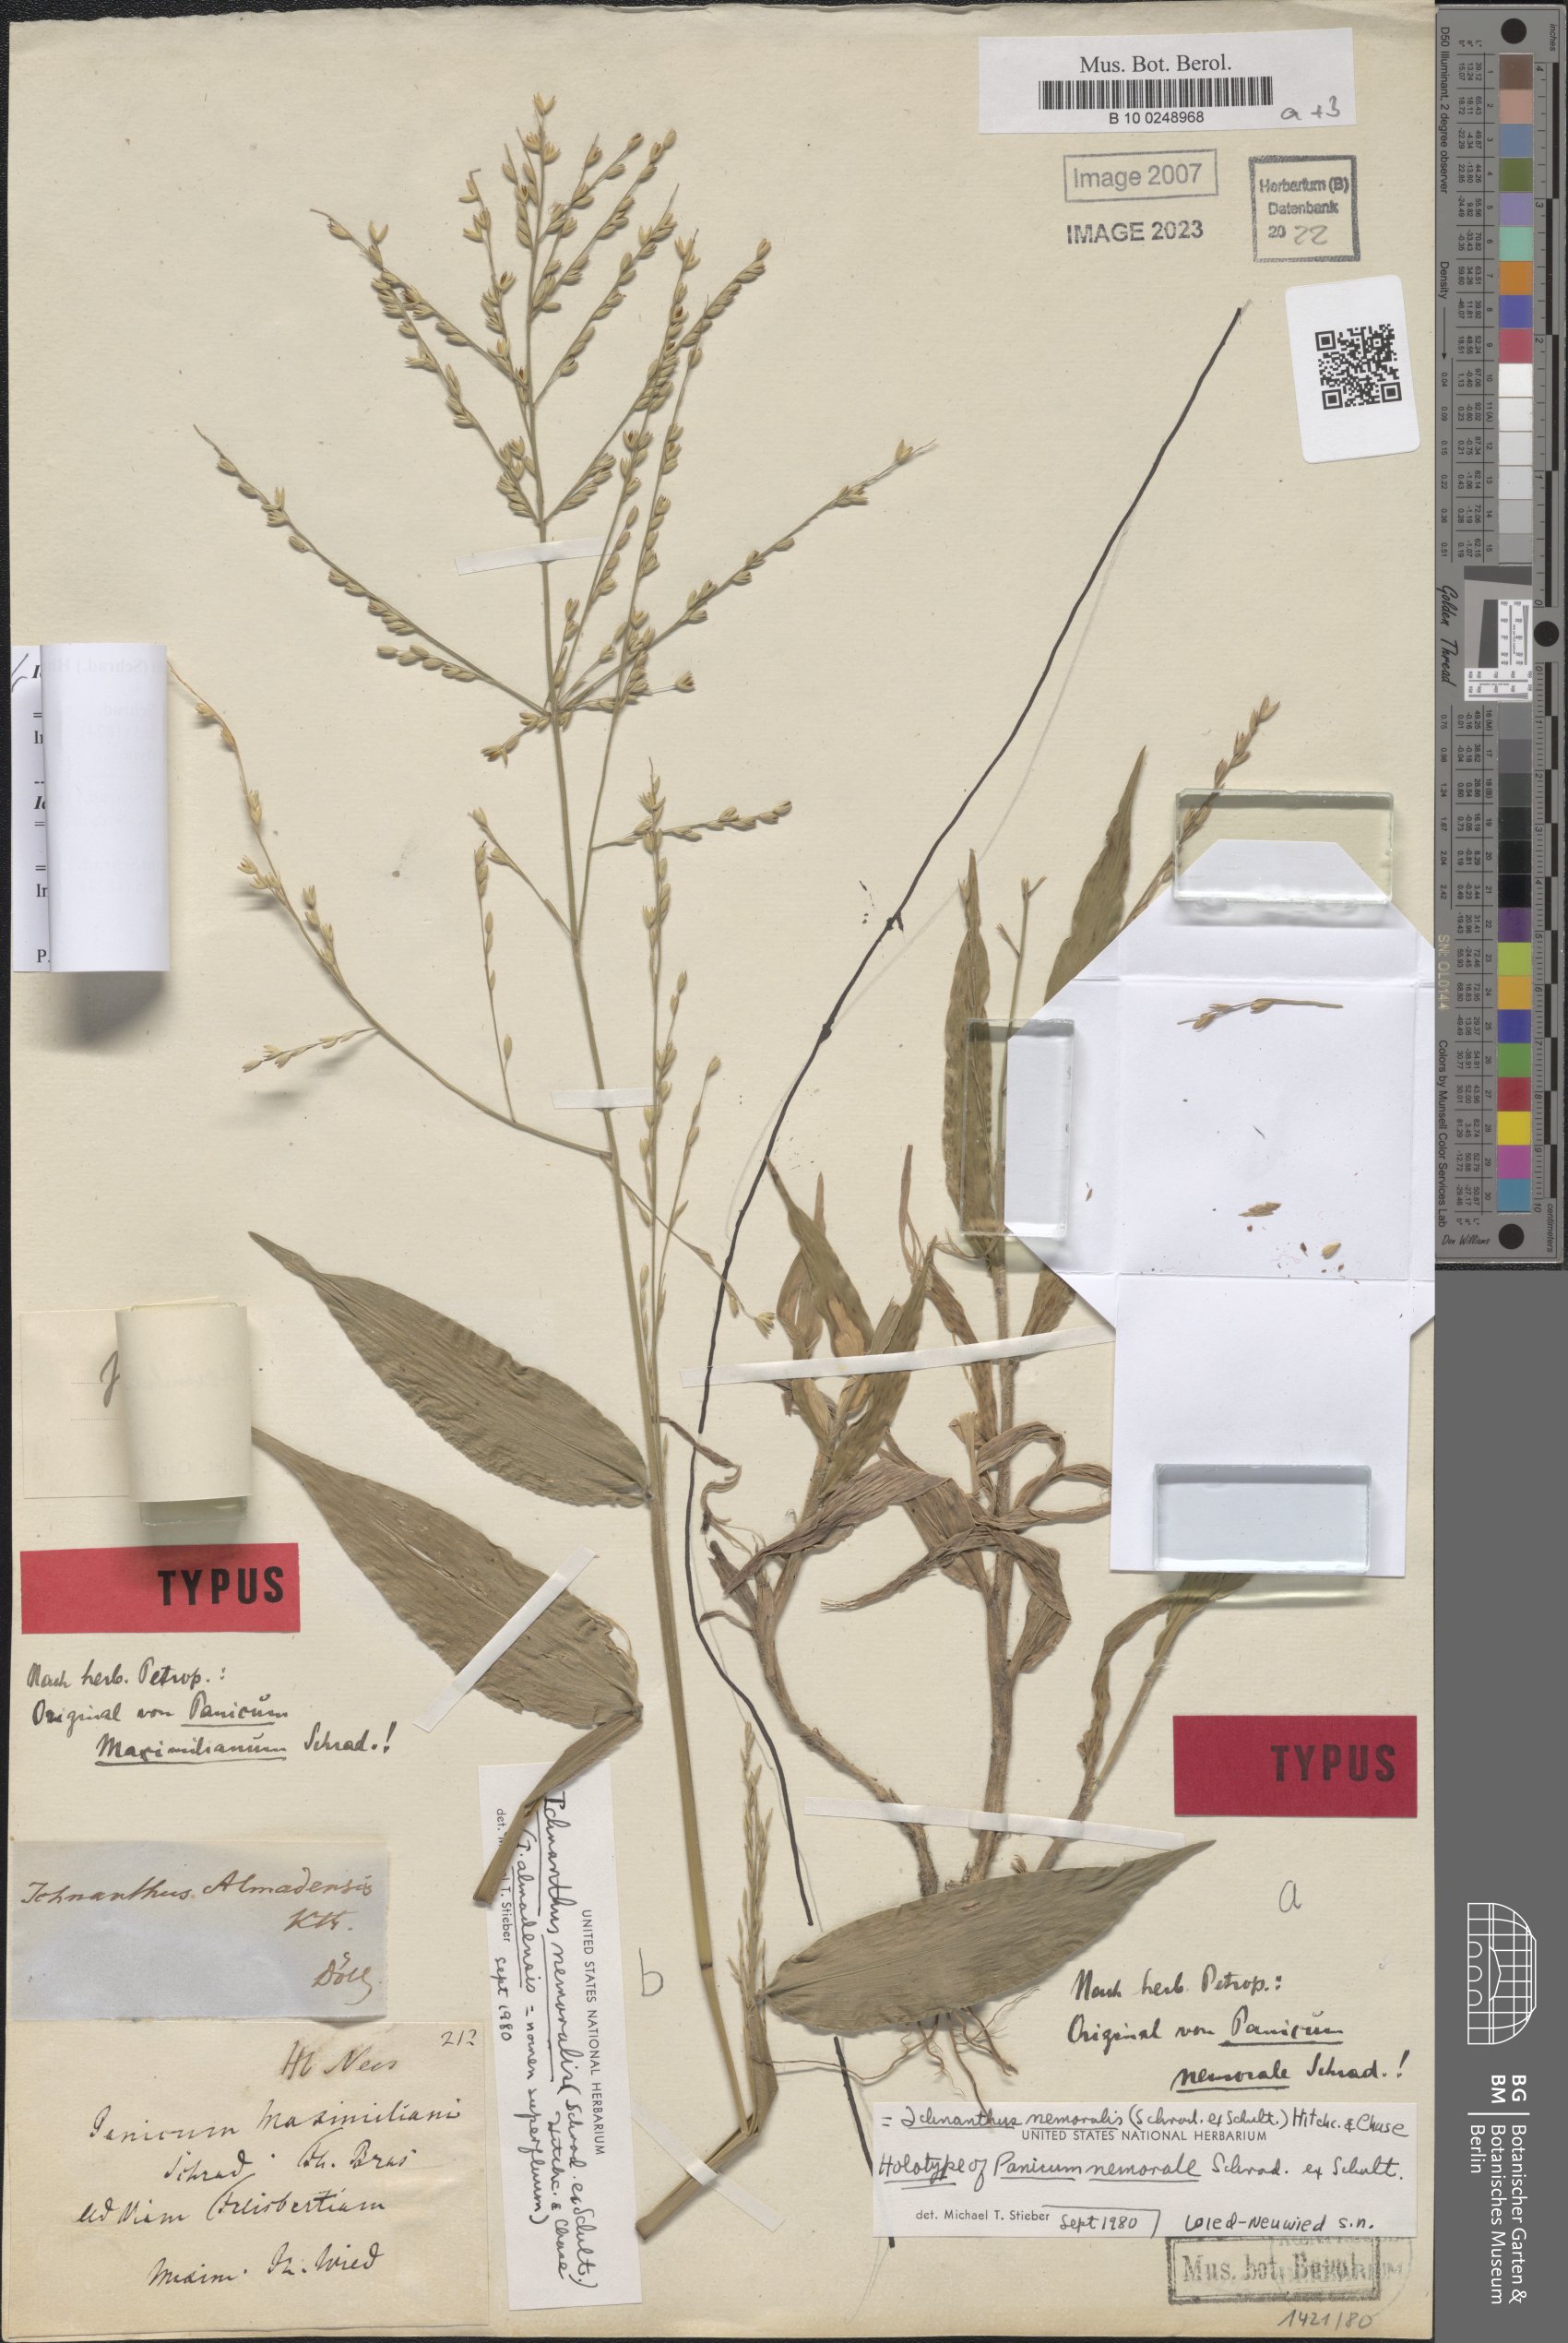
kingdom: Plantae
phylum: Tracheophyta
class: Liliopsida
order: Poales
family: Poaceae
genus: Ichnanthus
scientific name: Ichnanthus nemoralis
